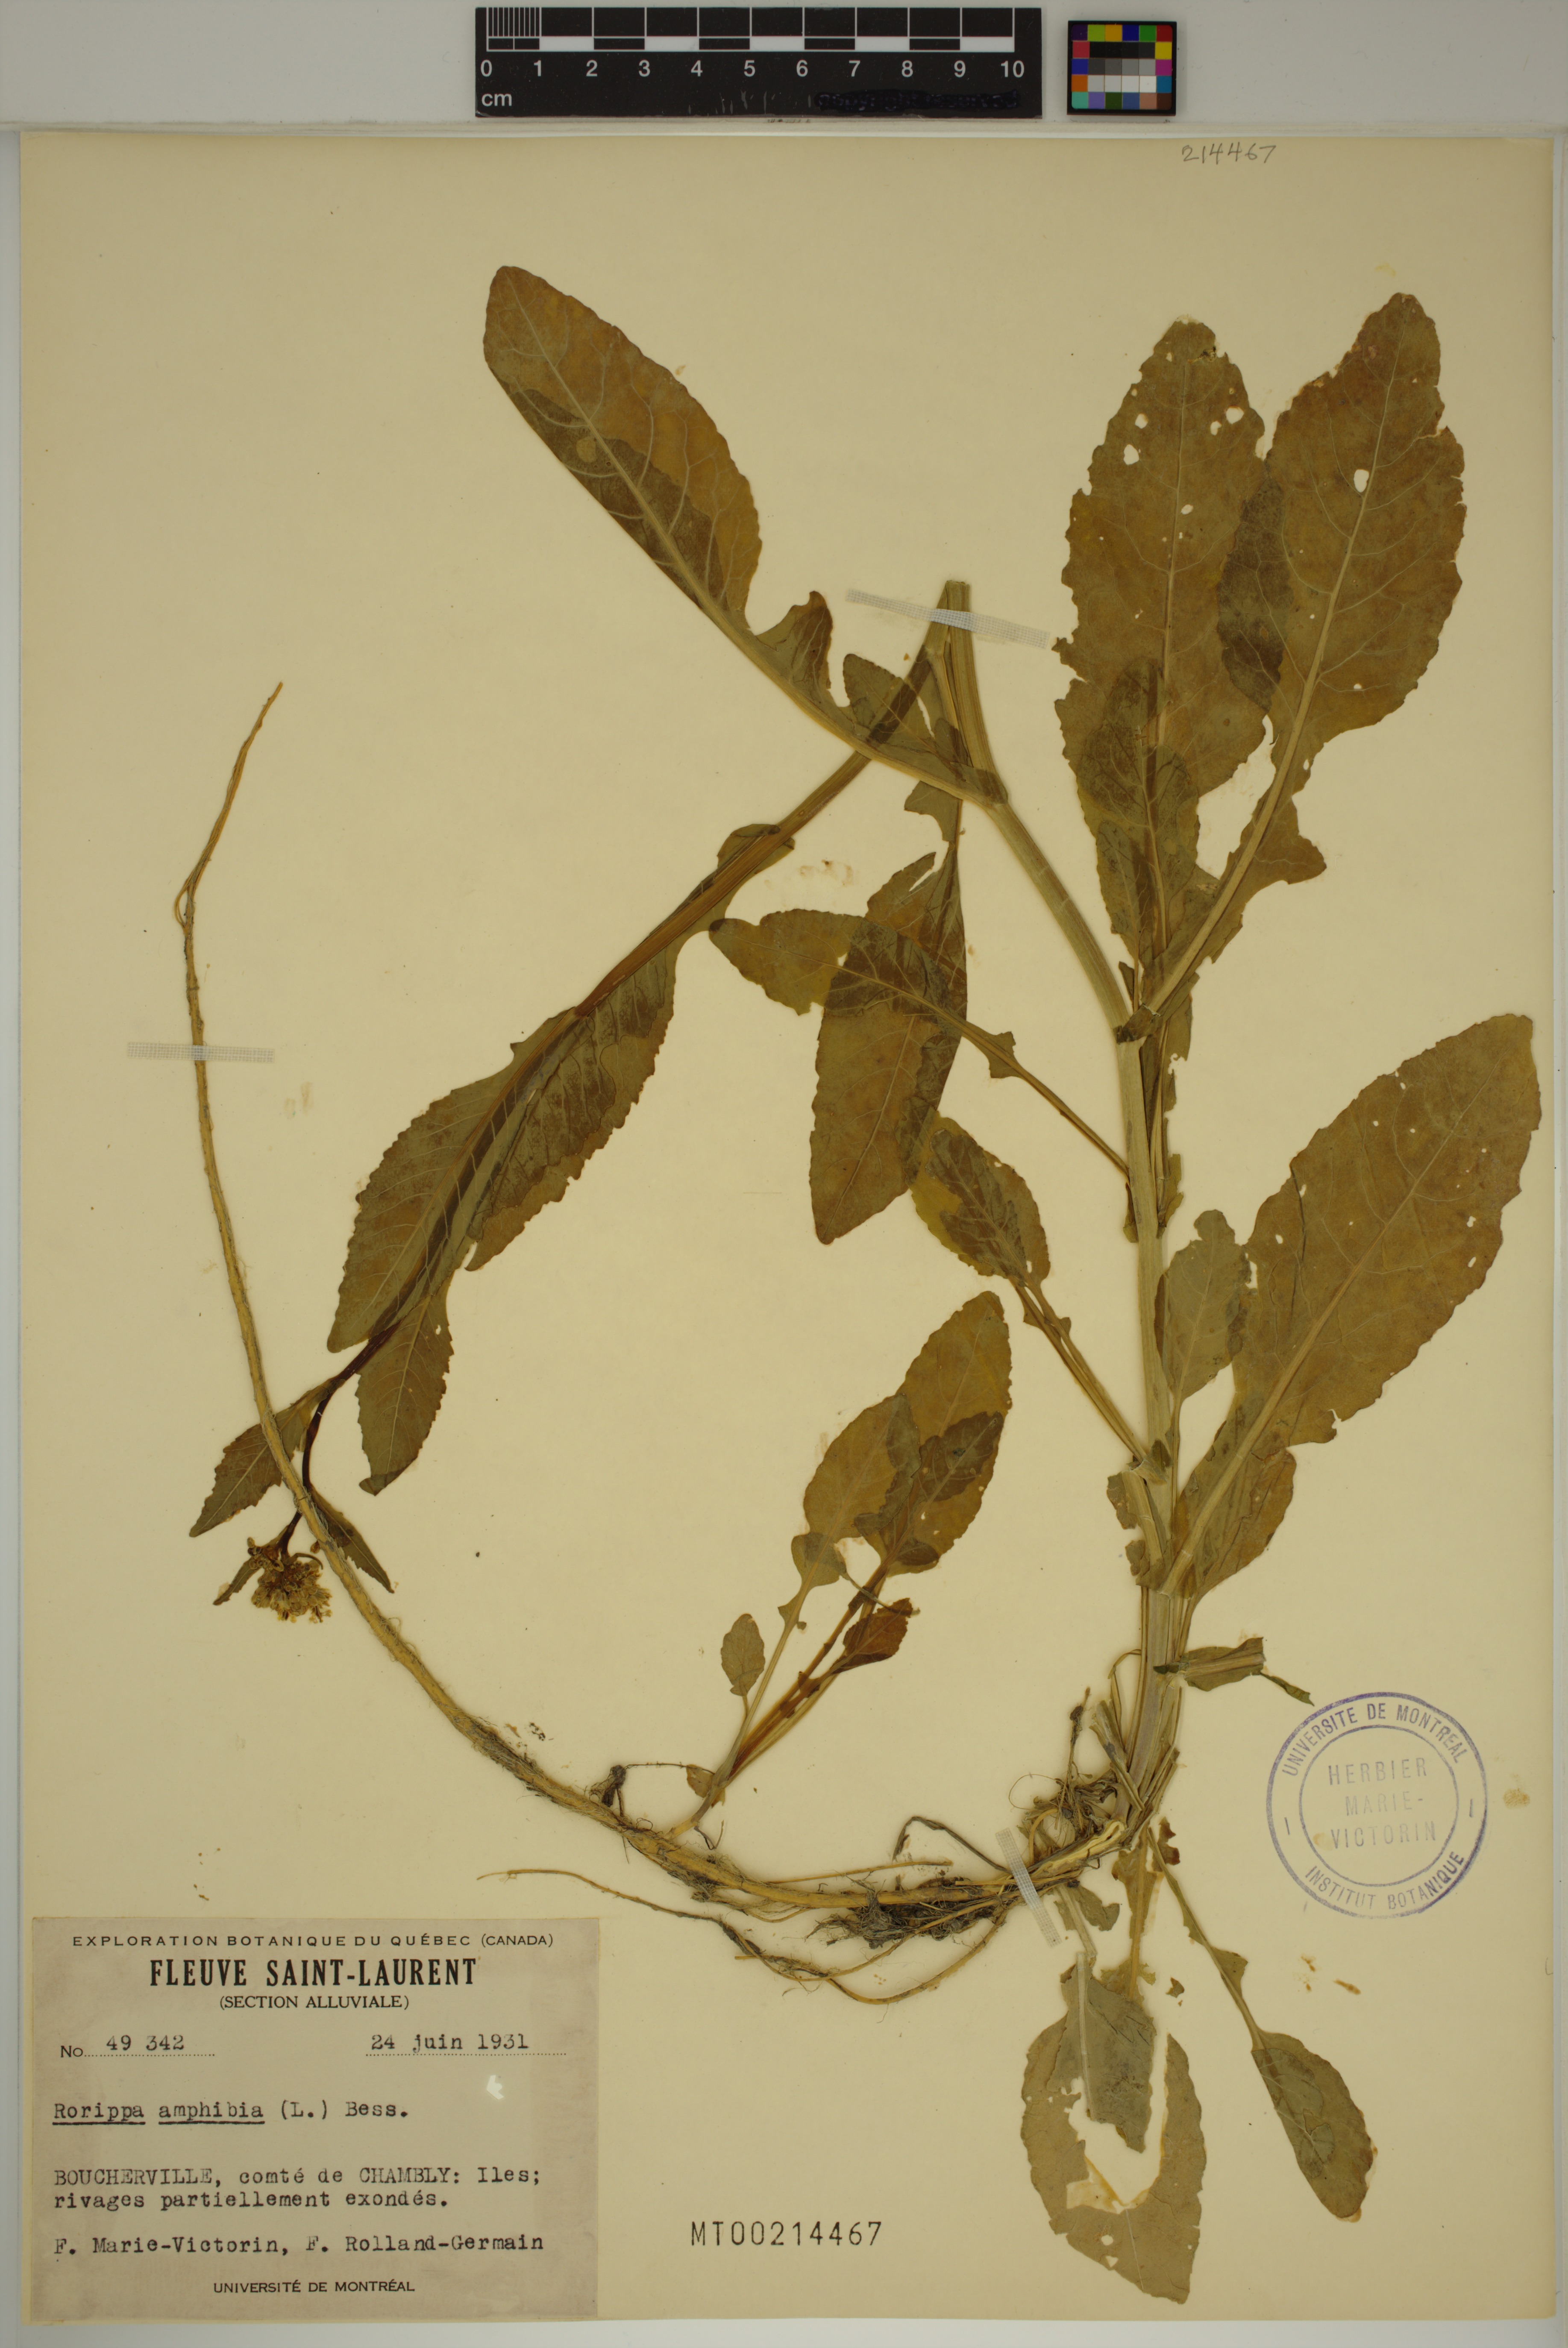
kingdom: Plantae
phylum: Tracheophyta
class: Magnoliopsida
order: Brassicales
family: Brassicaceae
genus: Rorippa
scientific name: Rorippa amphibia
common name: Great yellow-cress
